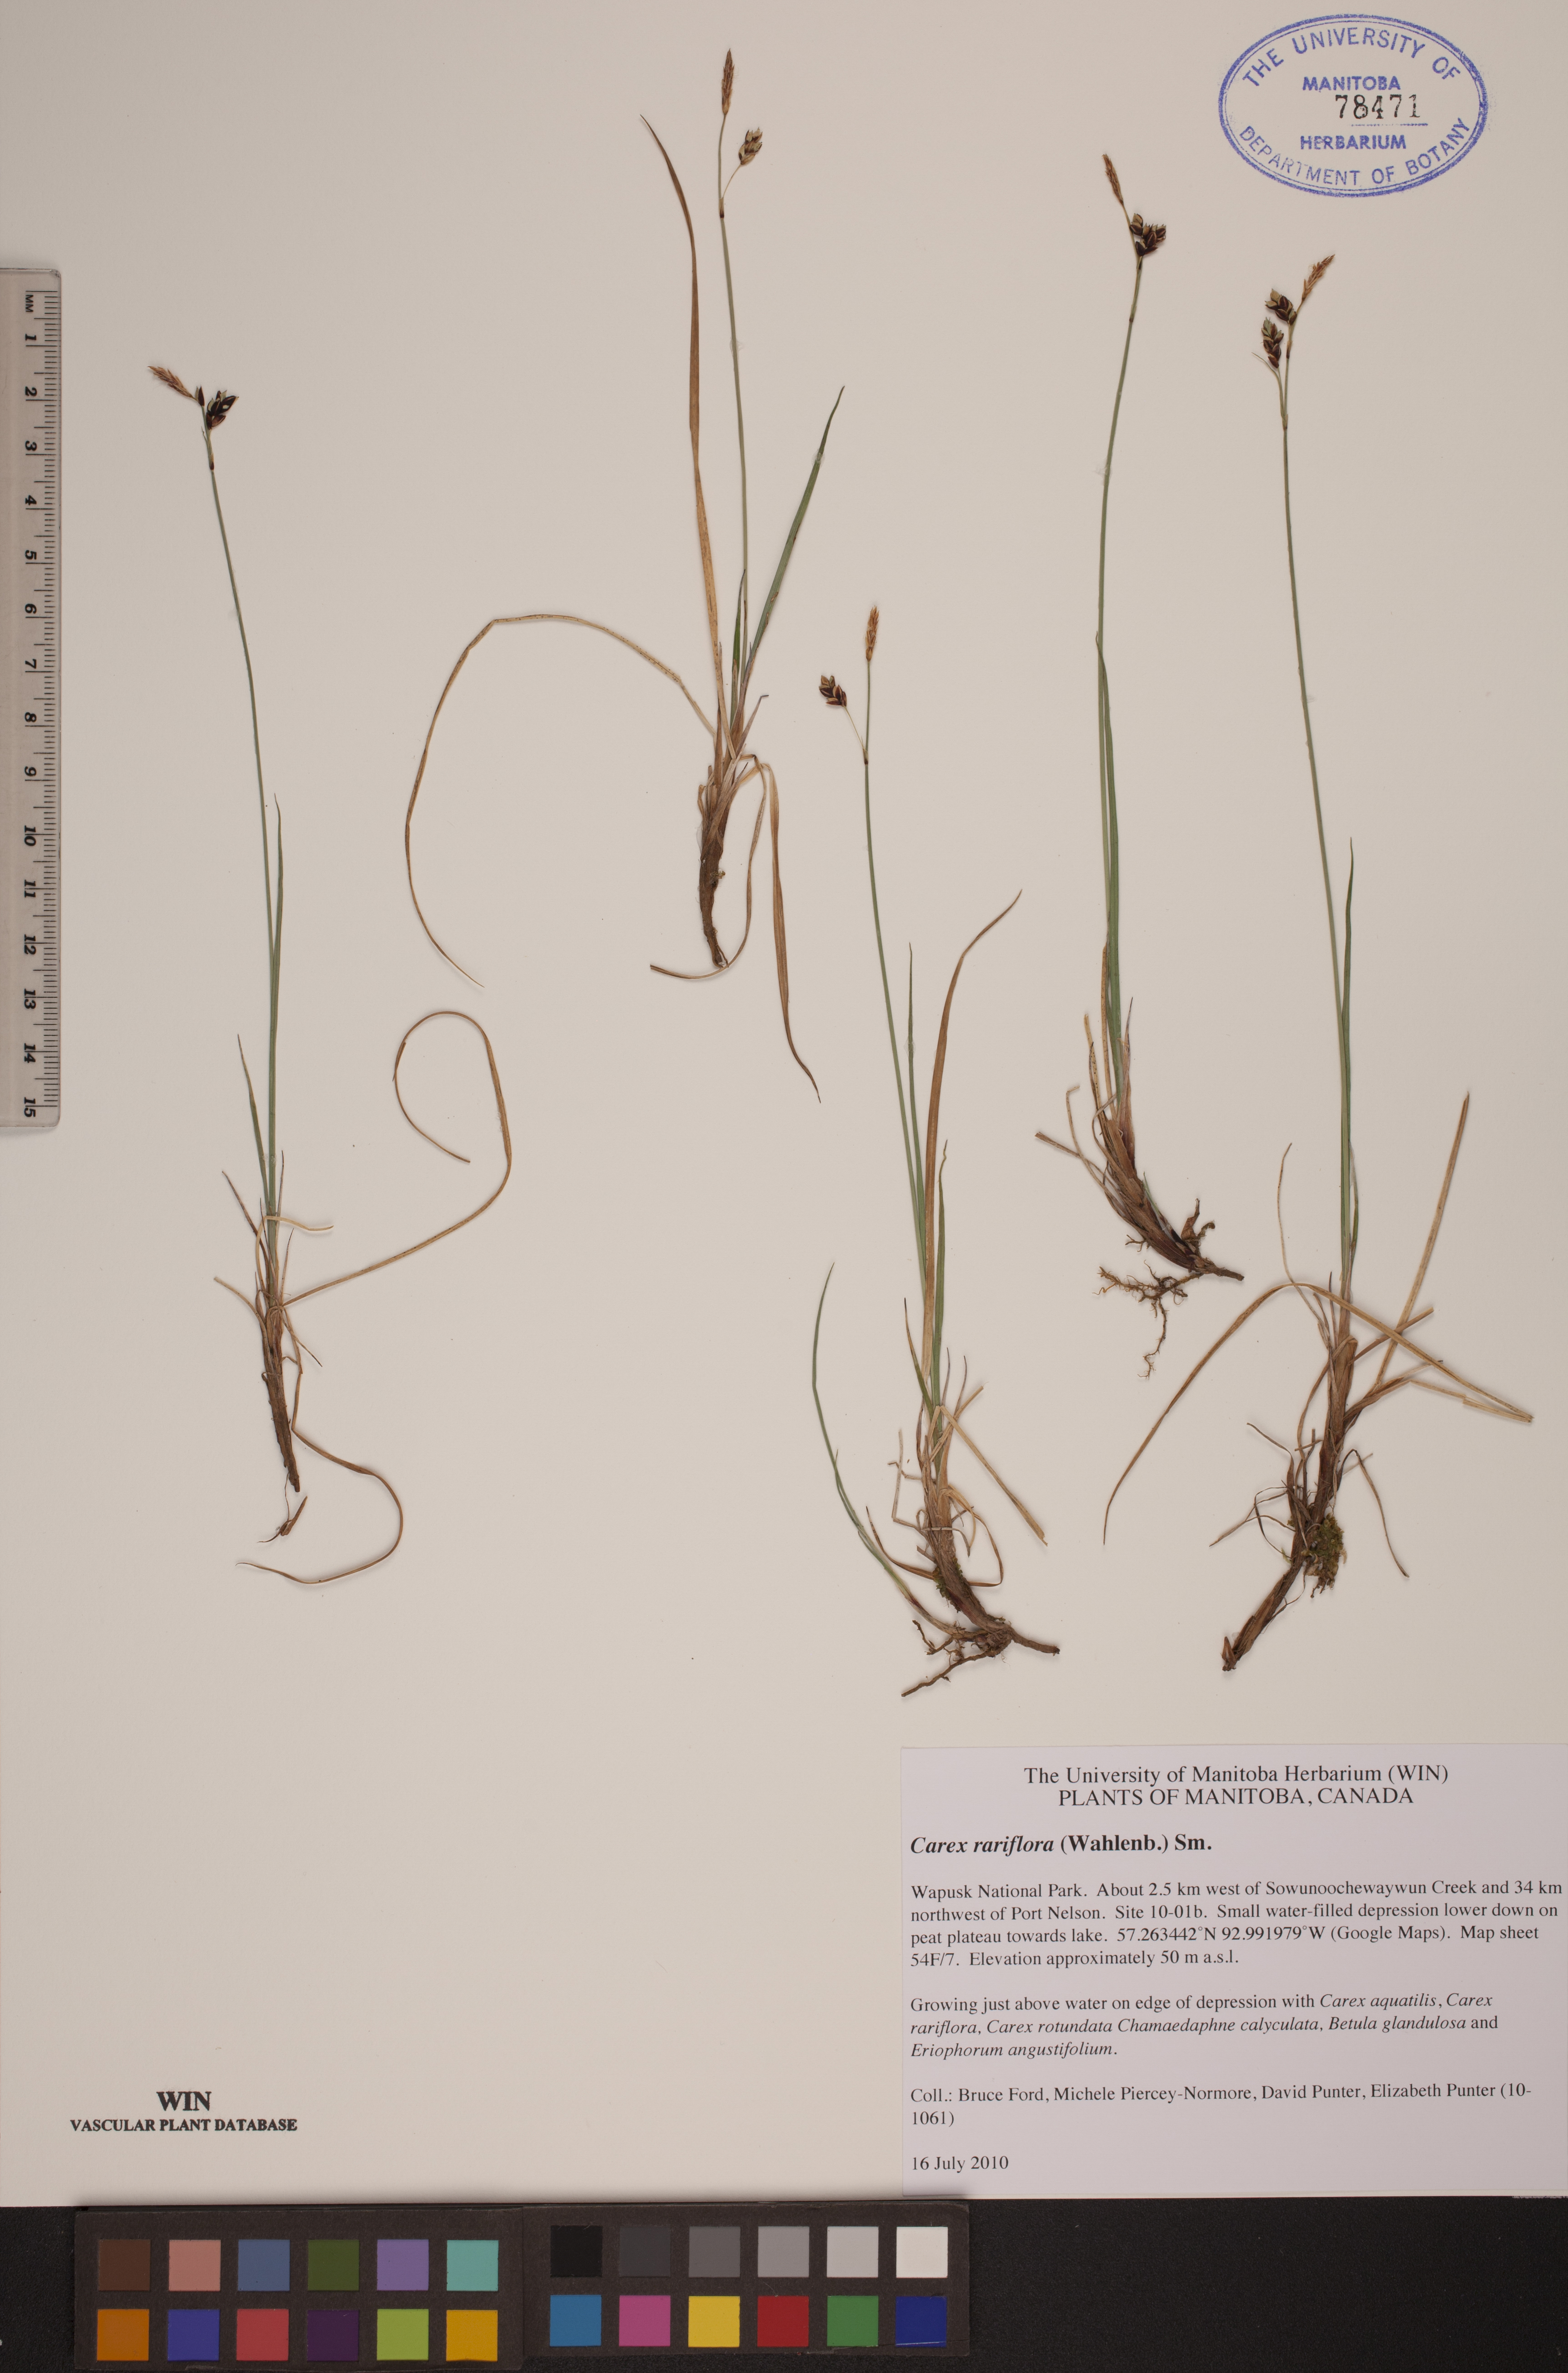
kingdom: Plantae
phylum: Tracheophyta
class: Liliopsida
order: Poales
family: Cyperaceae
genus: Carex
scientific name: Carex rariflora
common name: Loose-flowered alpine sedge
